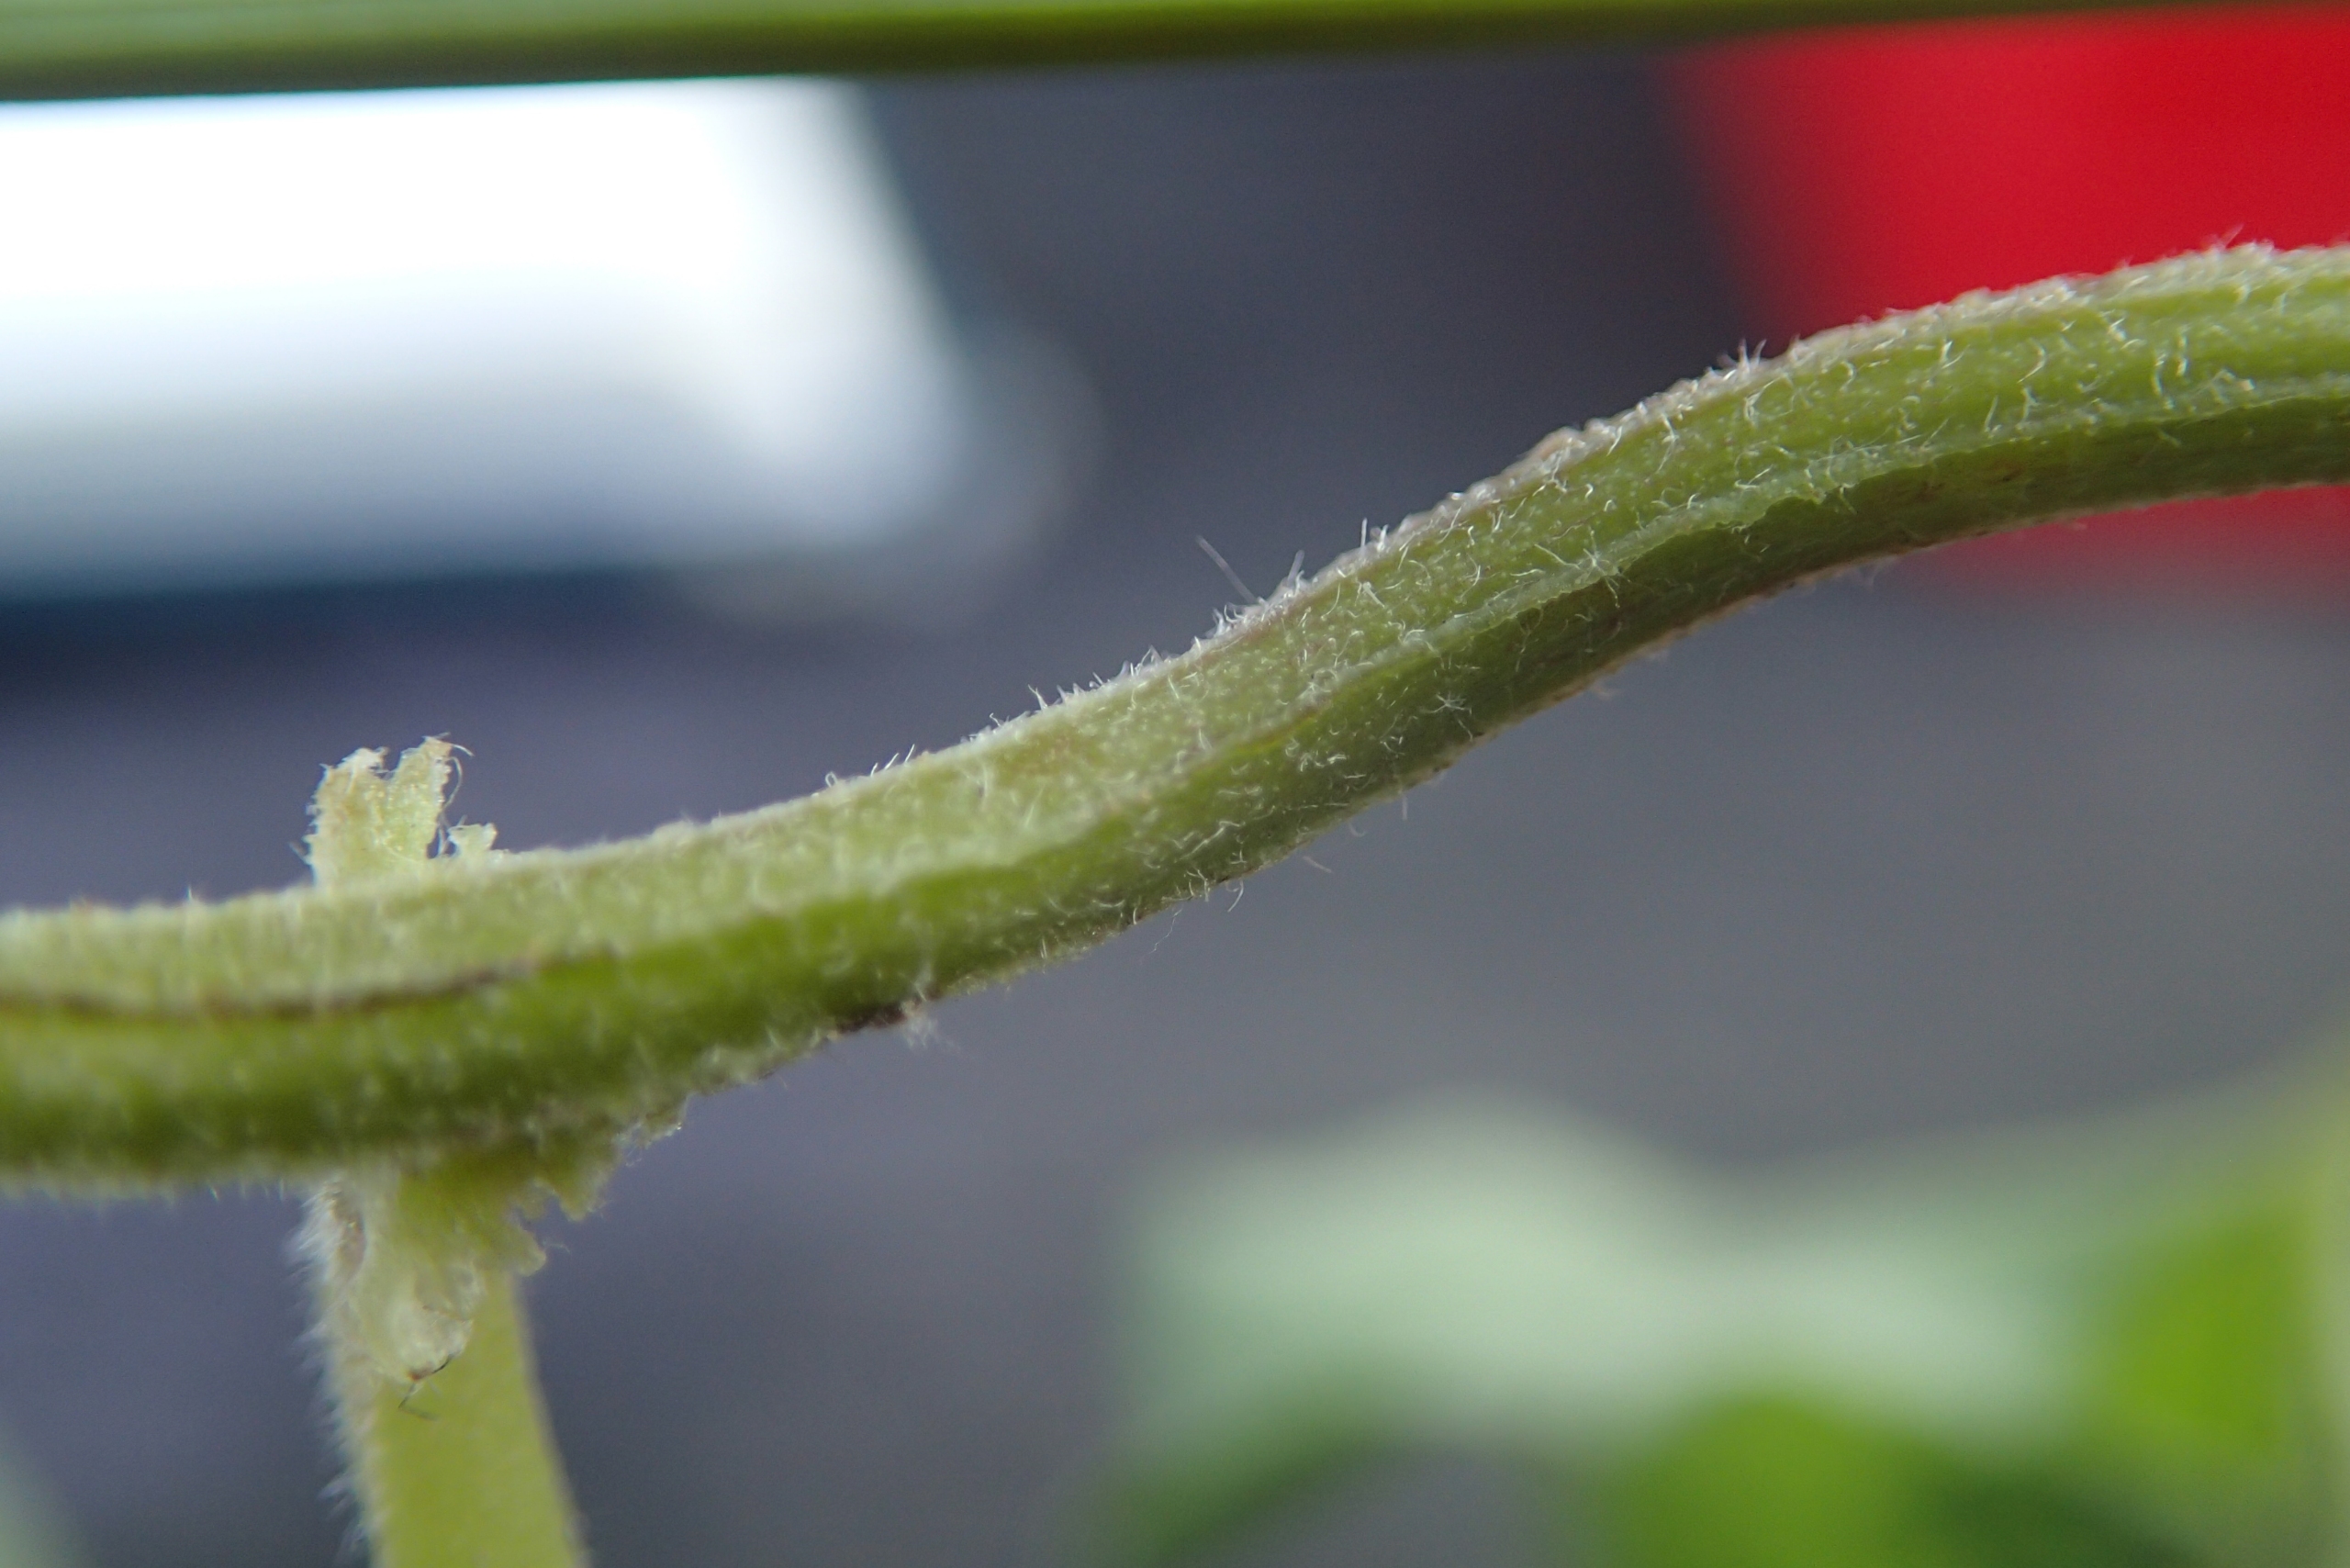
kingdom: Plantae
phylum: Tracheophyta
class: Magnoliopsida
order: Solanales
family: Convolvulaceae
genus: Calystegia
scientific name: Calystegia pulchra
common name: Have-snerle
